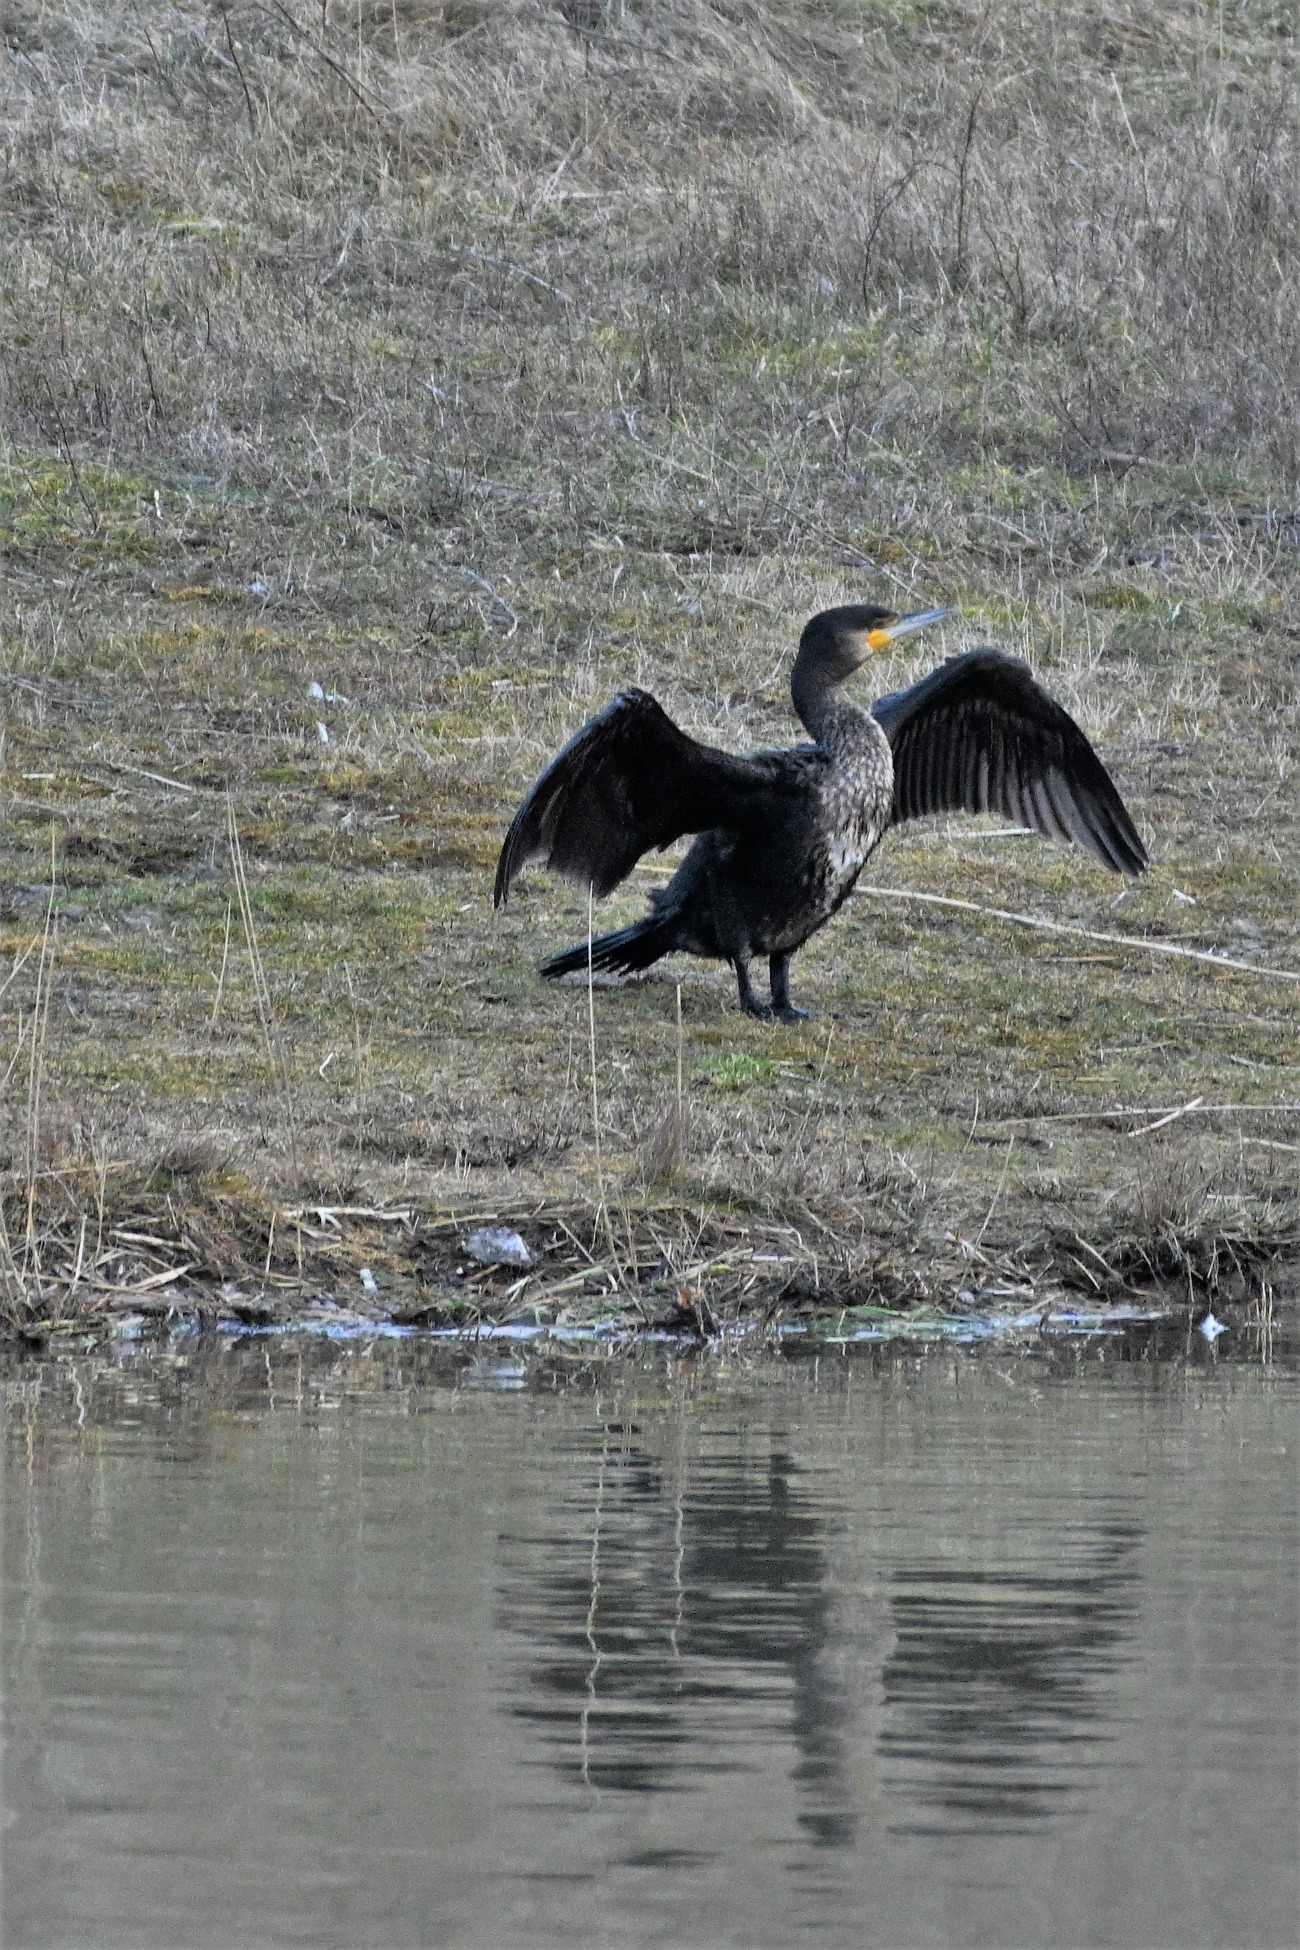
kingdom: Animalia
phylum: Chordata
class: Aves
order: Suliformes
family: Phalacrocoracidae
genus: Phalacrocorax
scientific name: Phalacrocorax carbo
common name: Skarv
